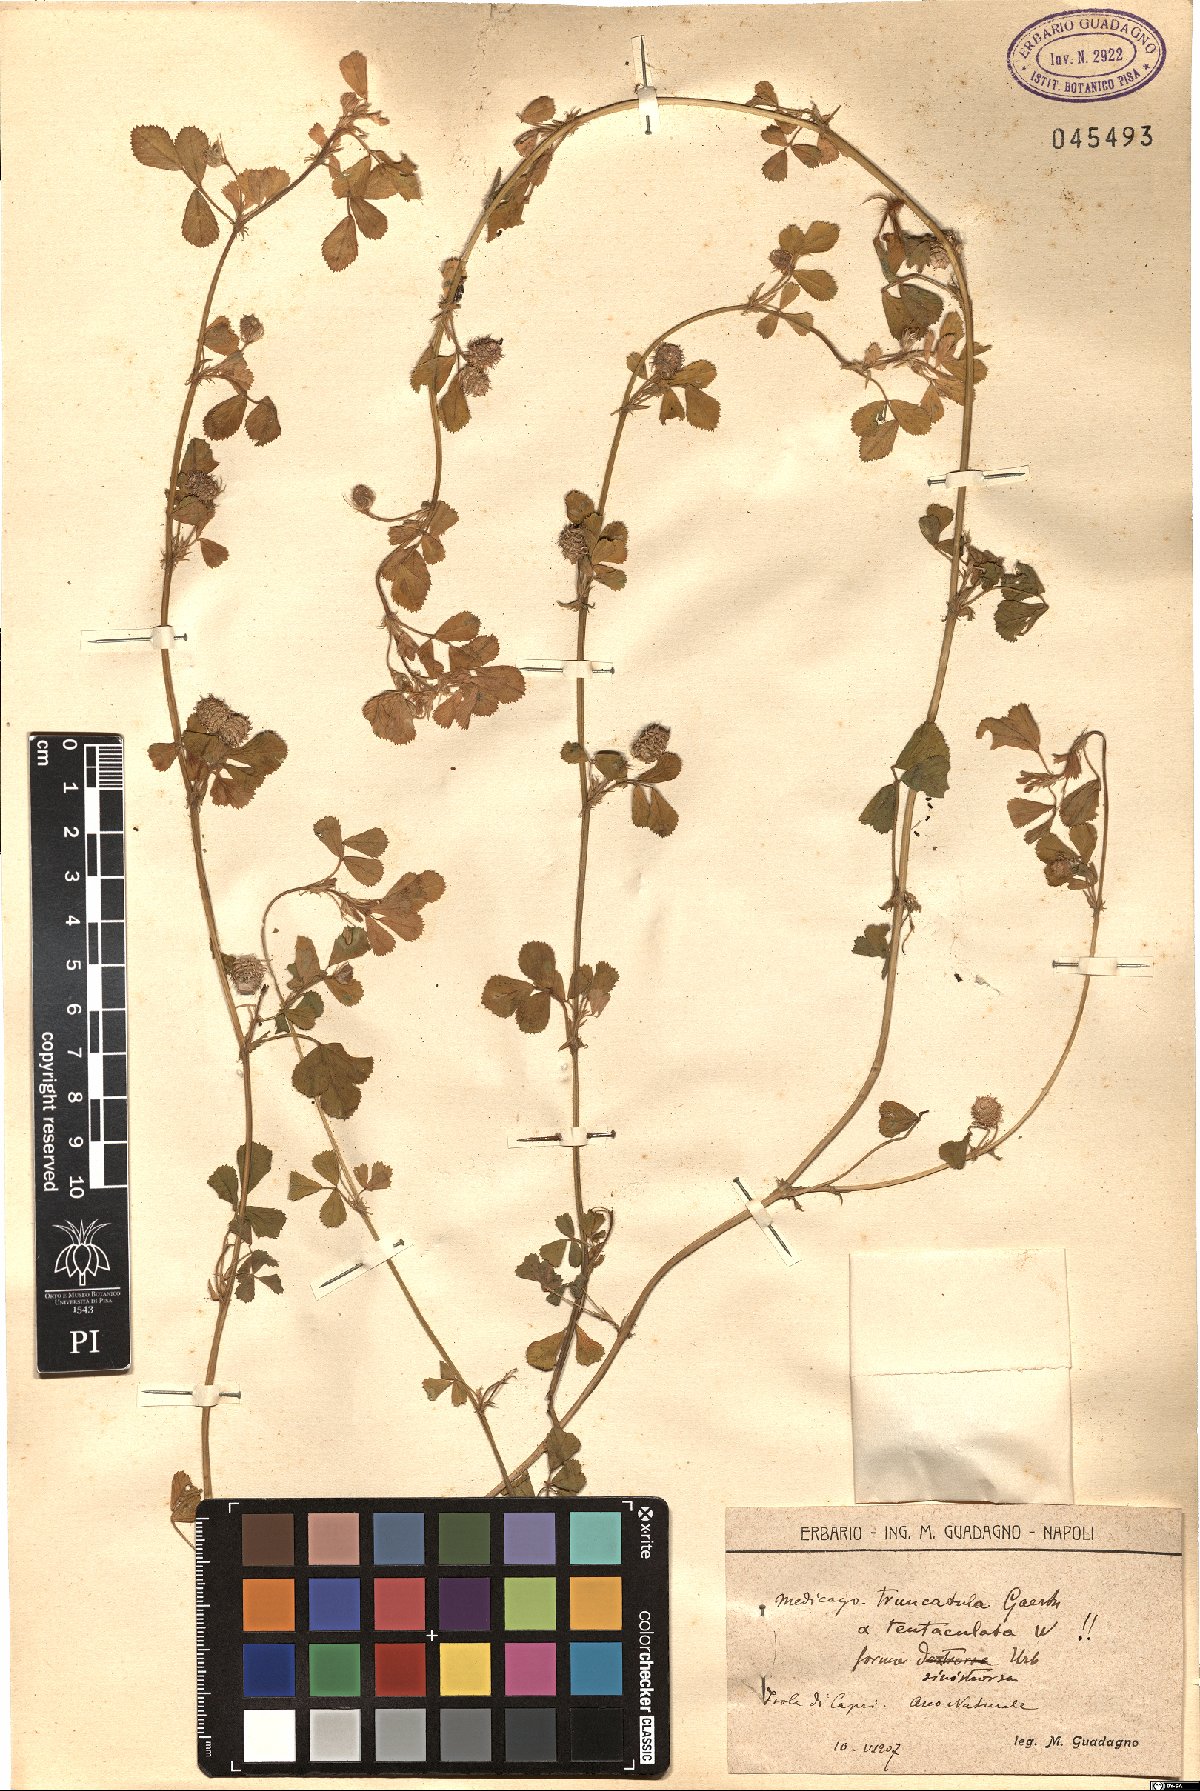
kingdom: Plantae
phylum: Tracheophyta
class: Magnoliopsida
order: Fabales
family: Fabaceae
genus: Medicago
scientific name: Medicago truncatula
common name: Strong-spined medick
